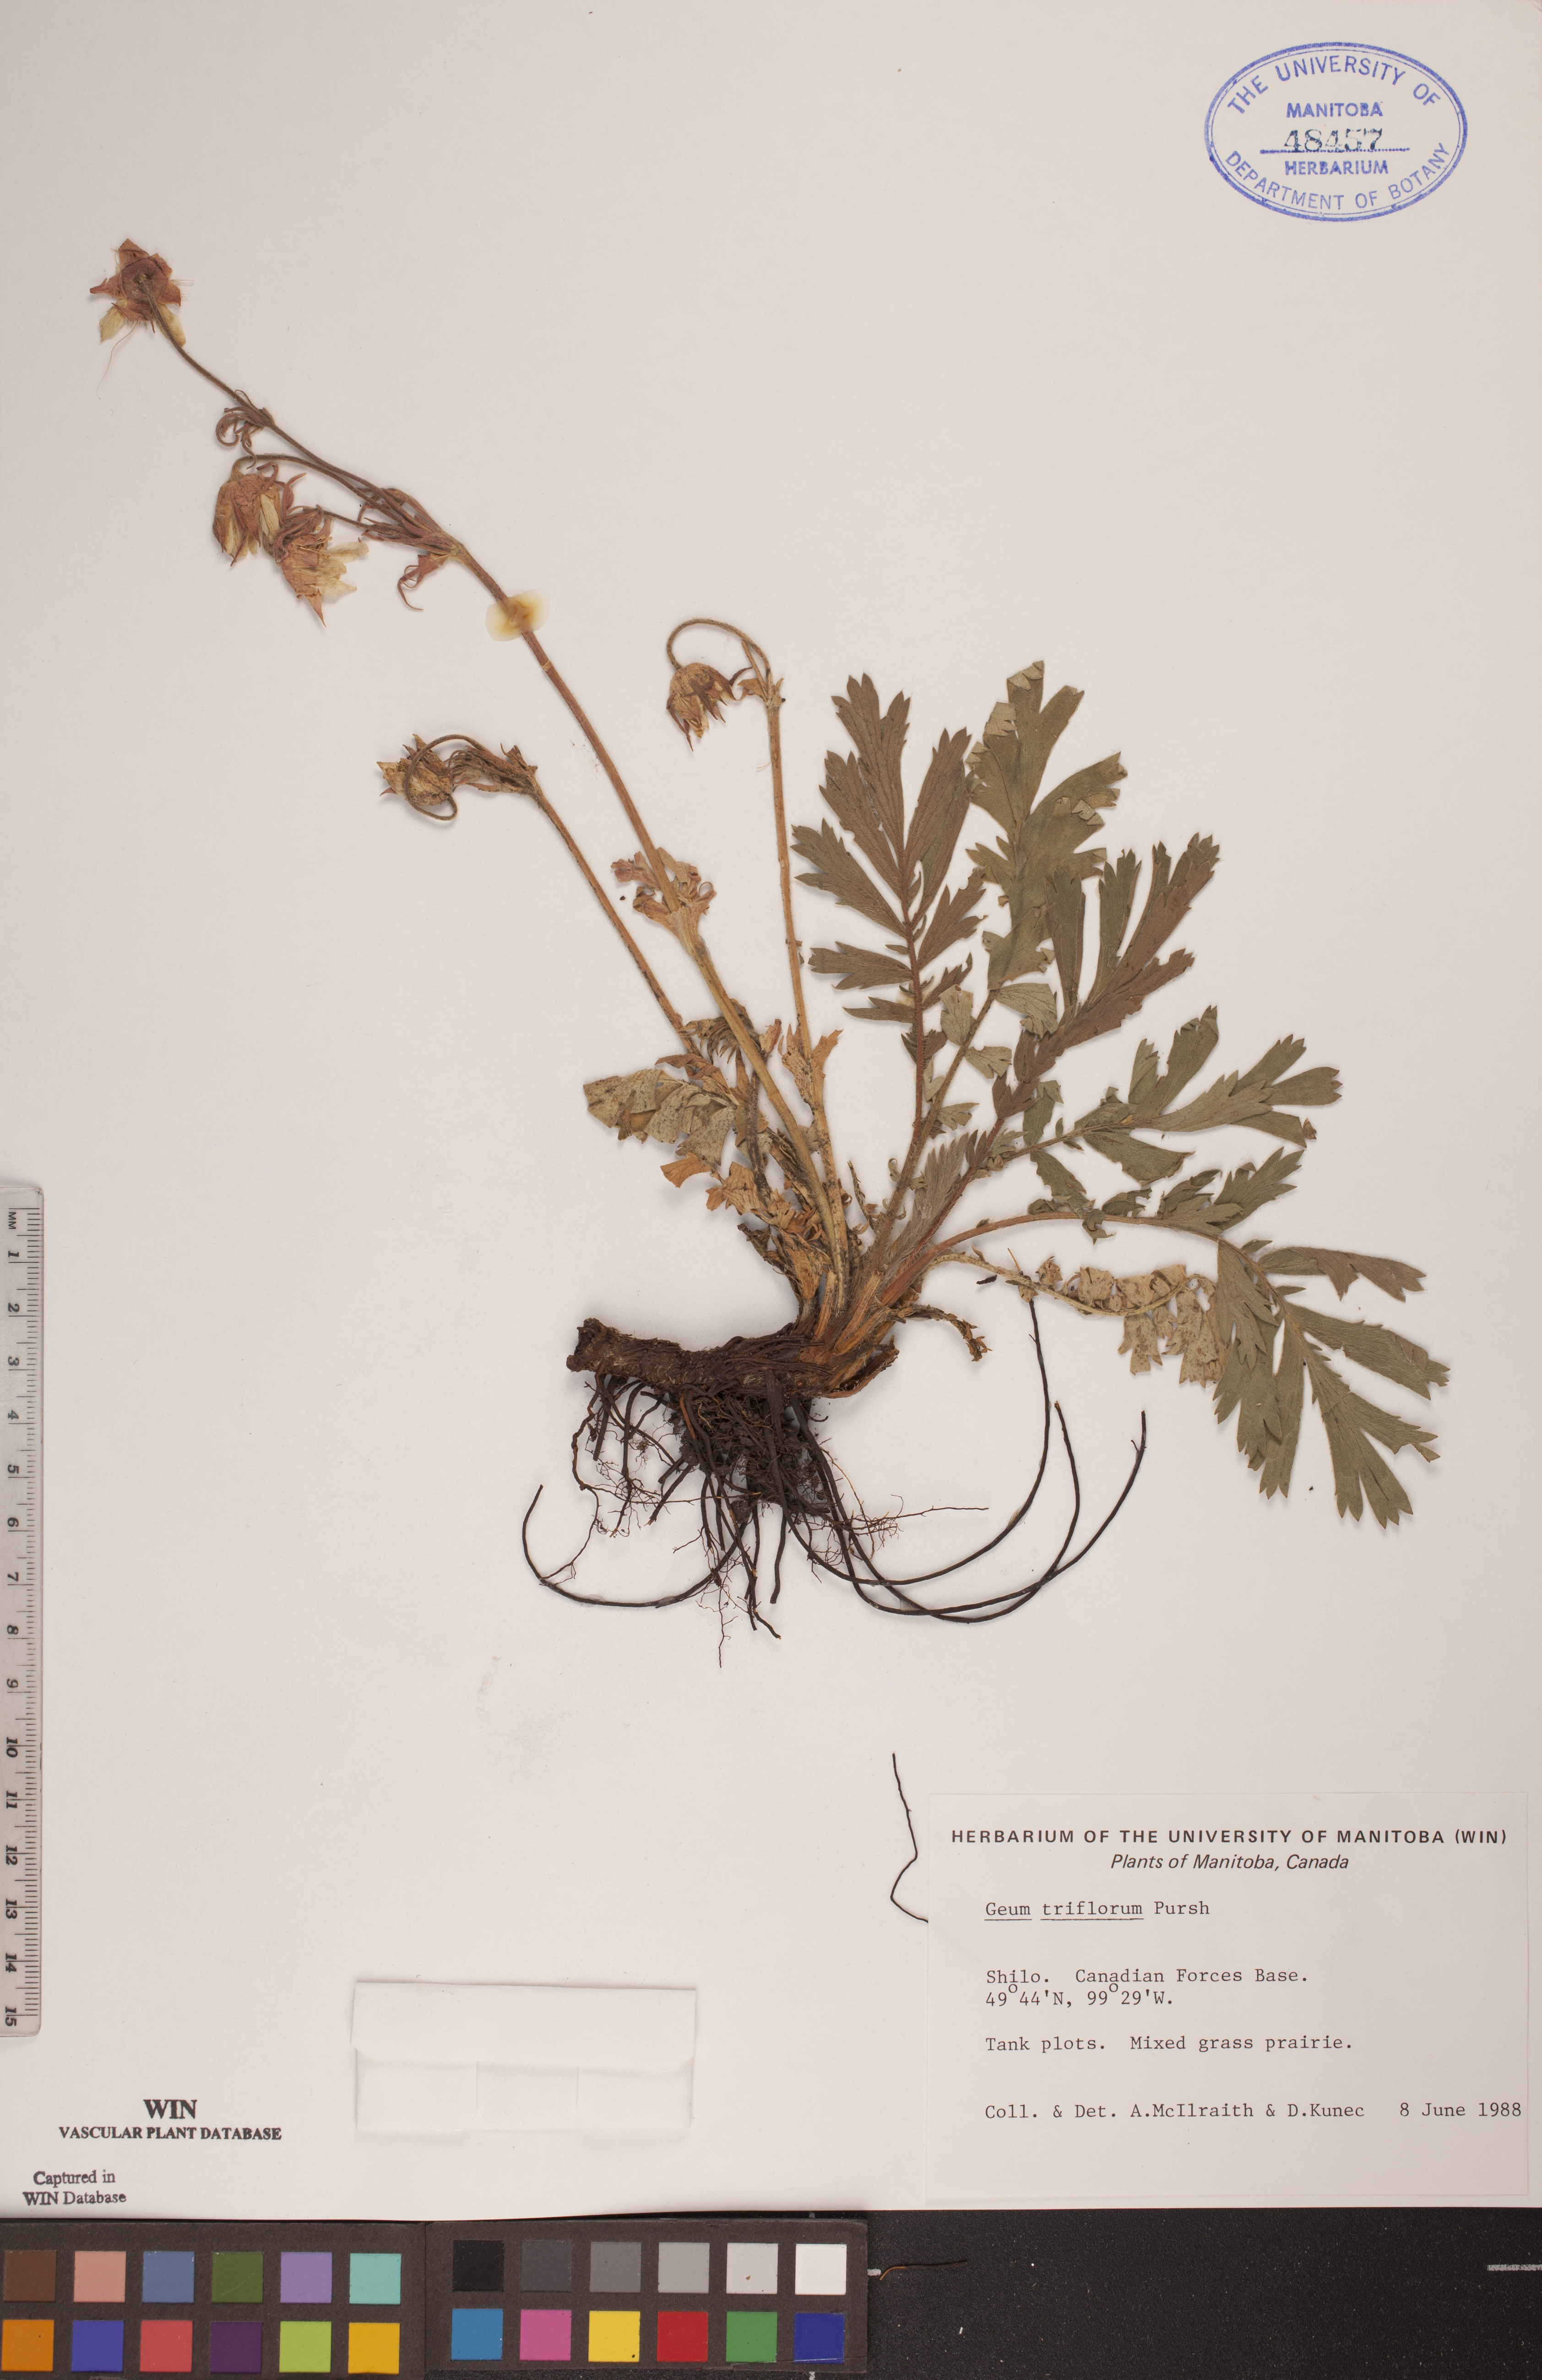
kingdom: Plantae
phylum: Tracheophyta
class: Magnoliopsida
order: Rosales
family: Rosaceae
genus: Geum
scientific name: Geum triflorum
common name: Old man's whiskers
